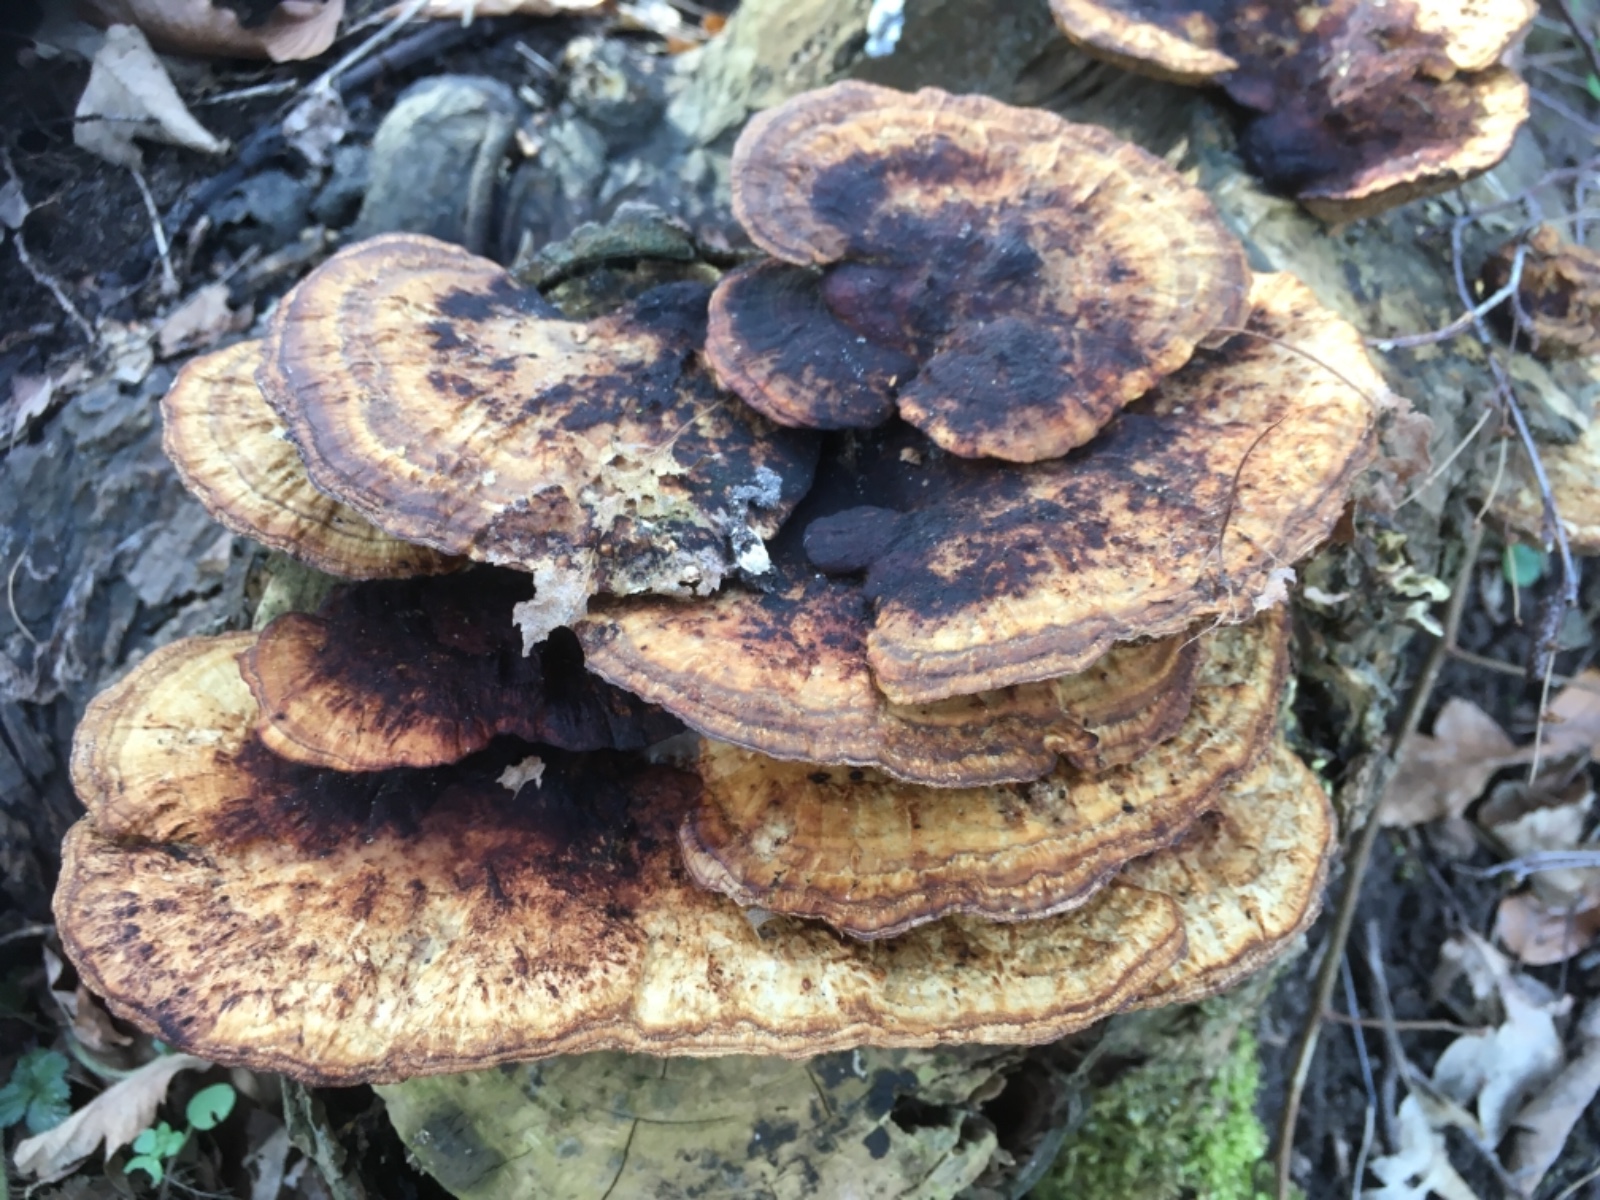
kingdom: Fungi
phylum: Basidiomycota
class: Agaricomycetes
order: Polyporales
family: Polyporaceae
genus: Daedaleopsis
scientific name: Daedaleopsis confragosa
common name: rødmende læderporesvamp
